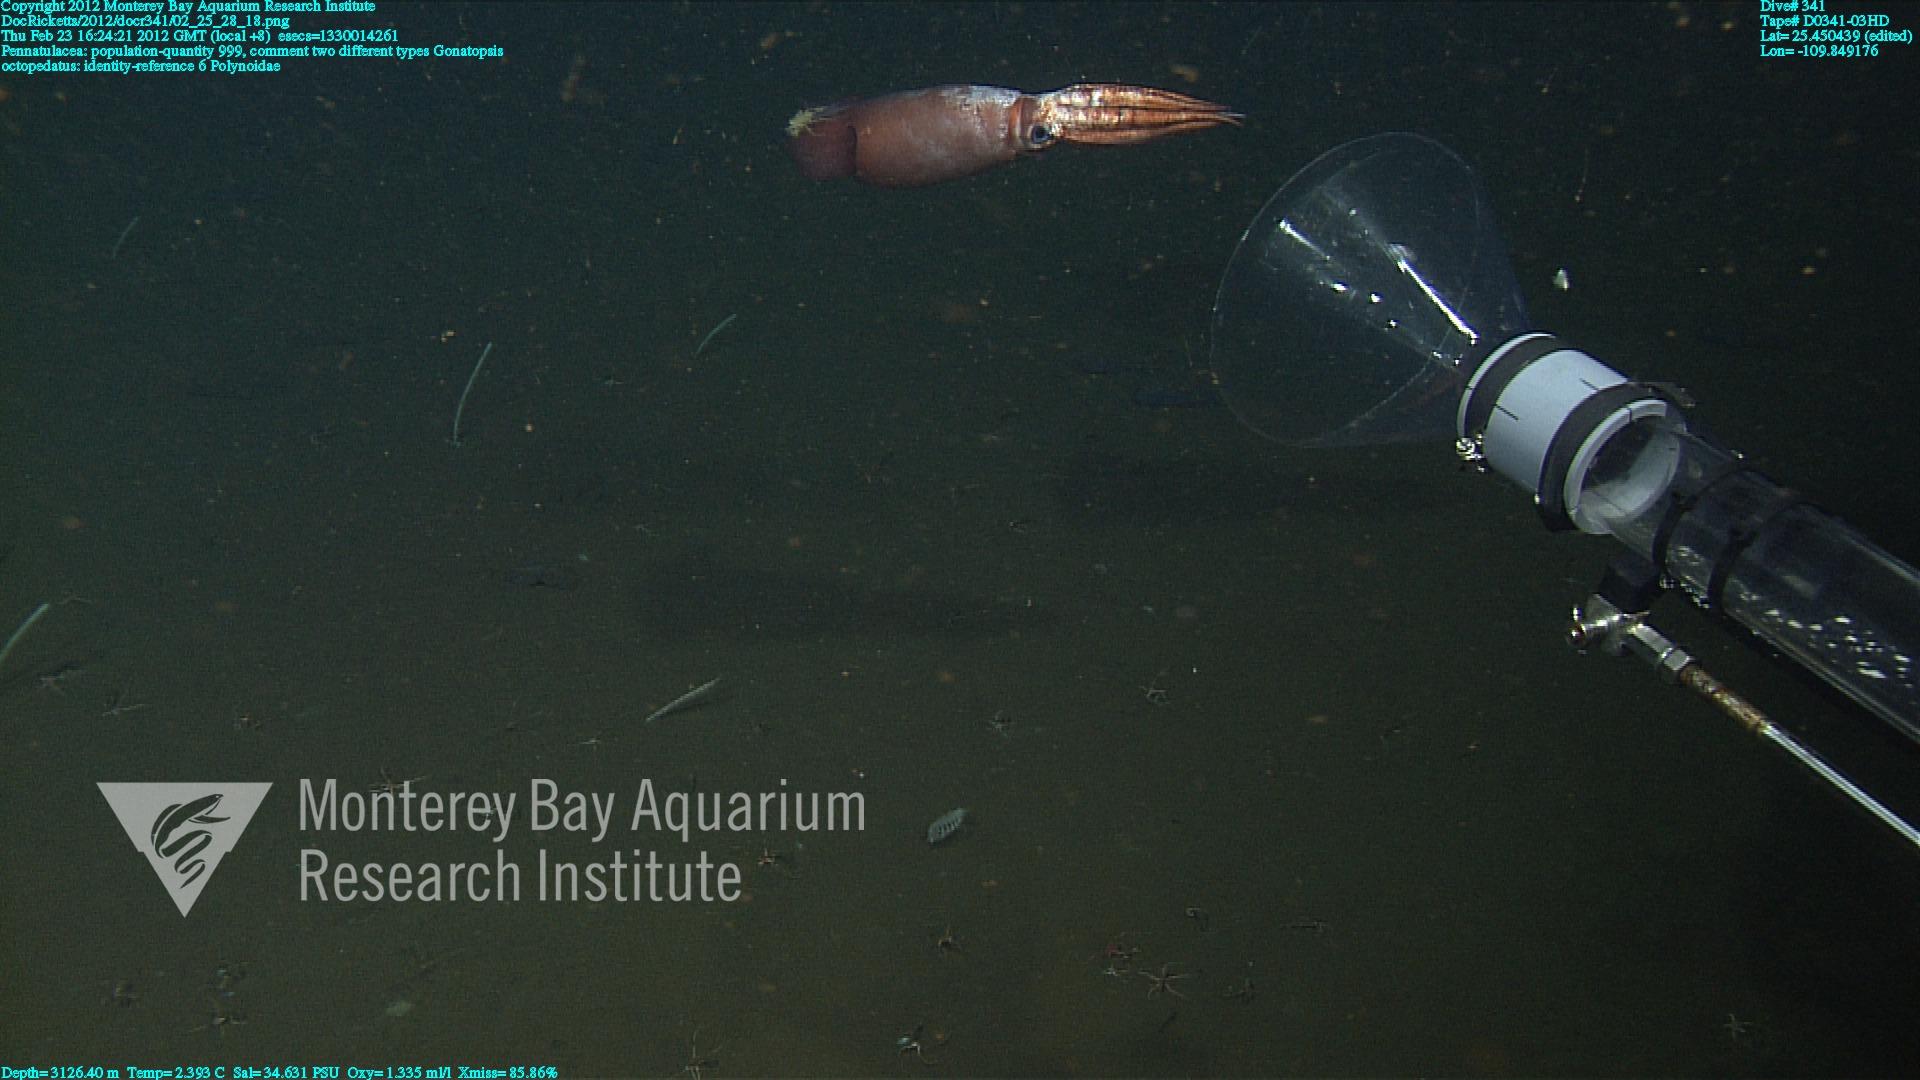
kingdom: Animalia
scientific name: Animalia
